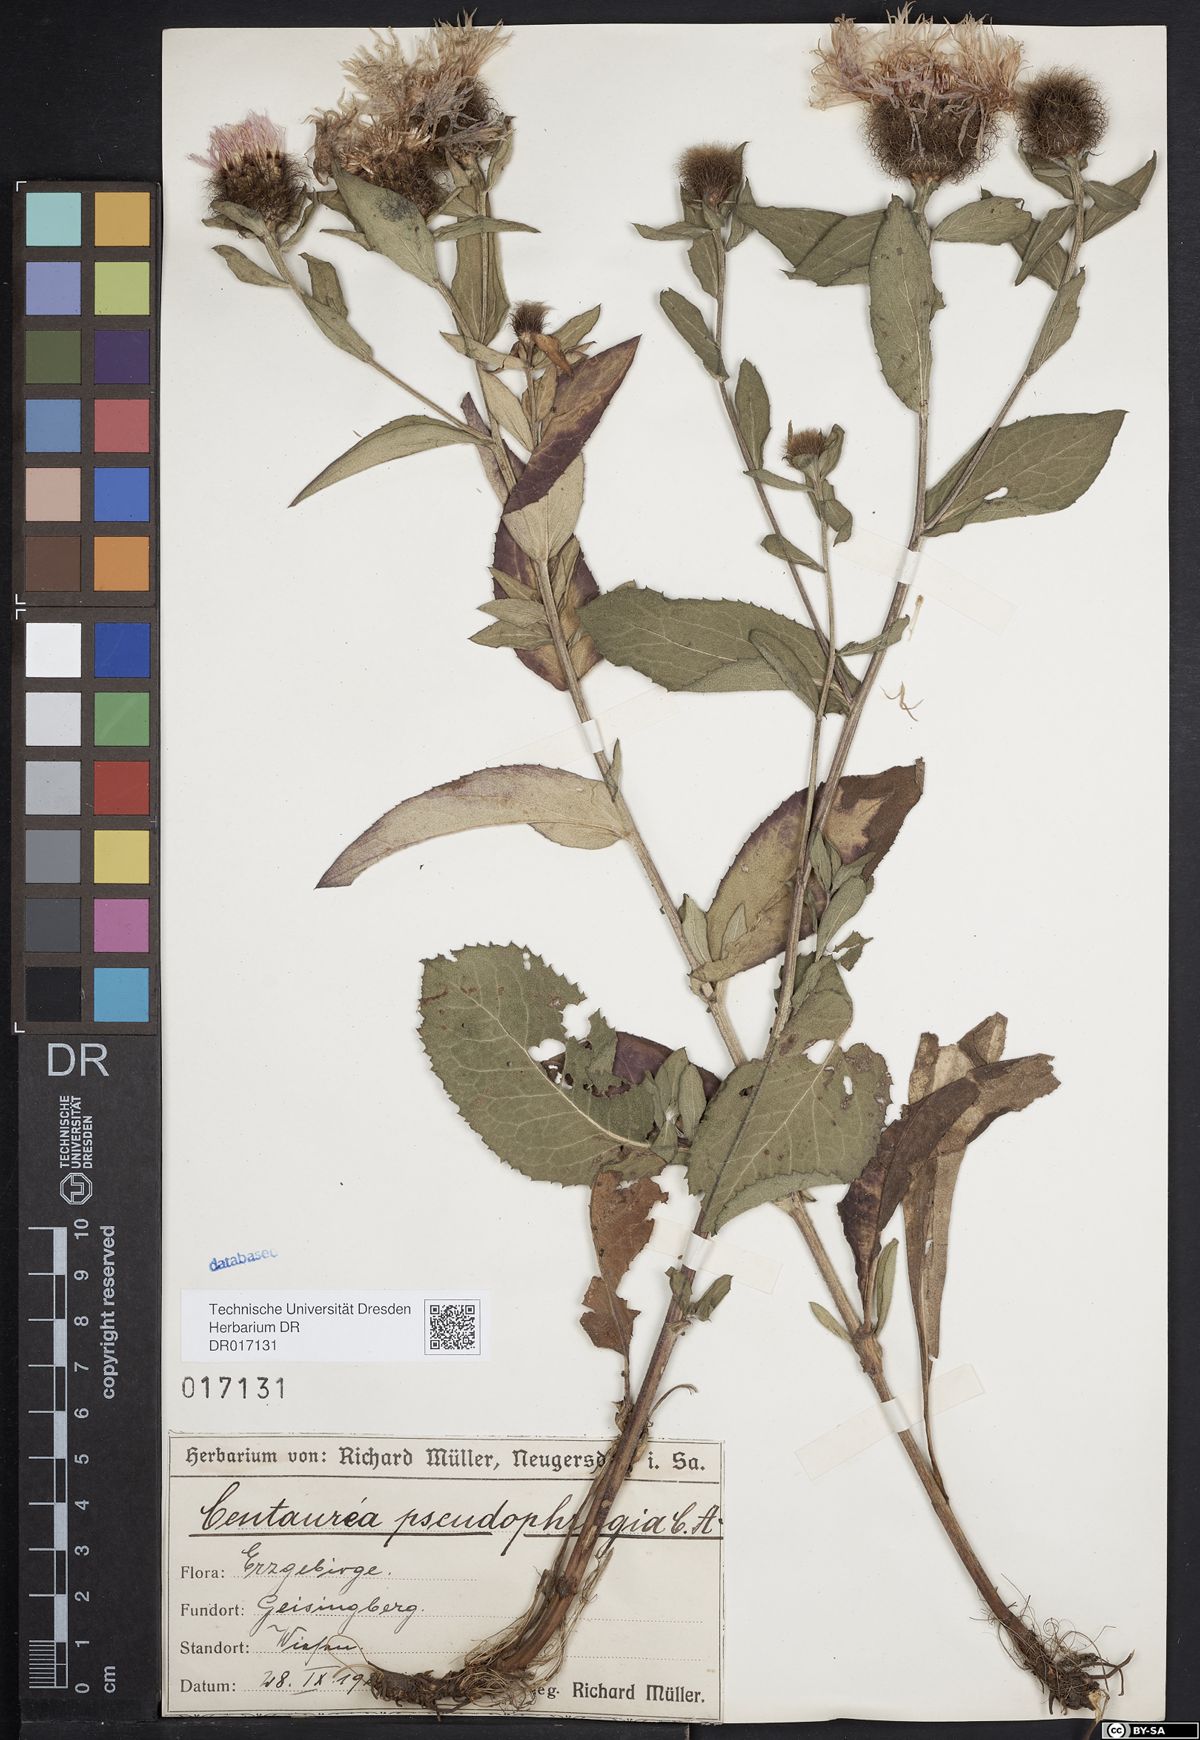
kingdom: Plantae
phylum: Tracheophyta
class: Magnoliopsida
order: Asterales
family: Asteraceae
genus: Centaurea
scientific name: Centaurea pseudophrygia
